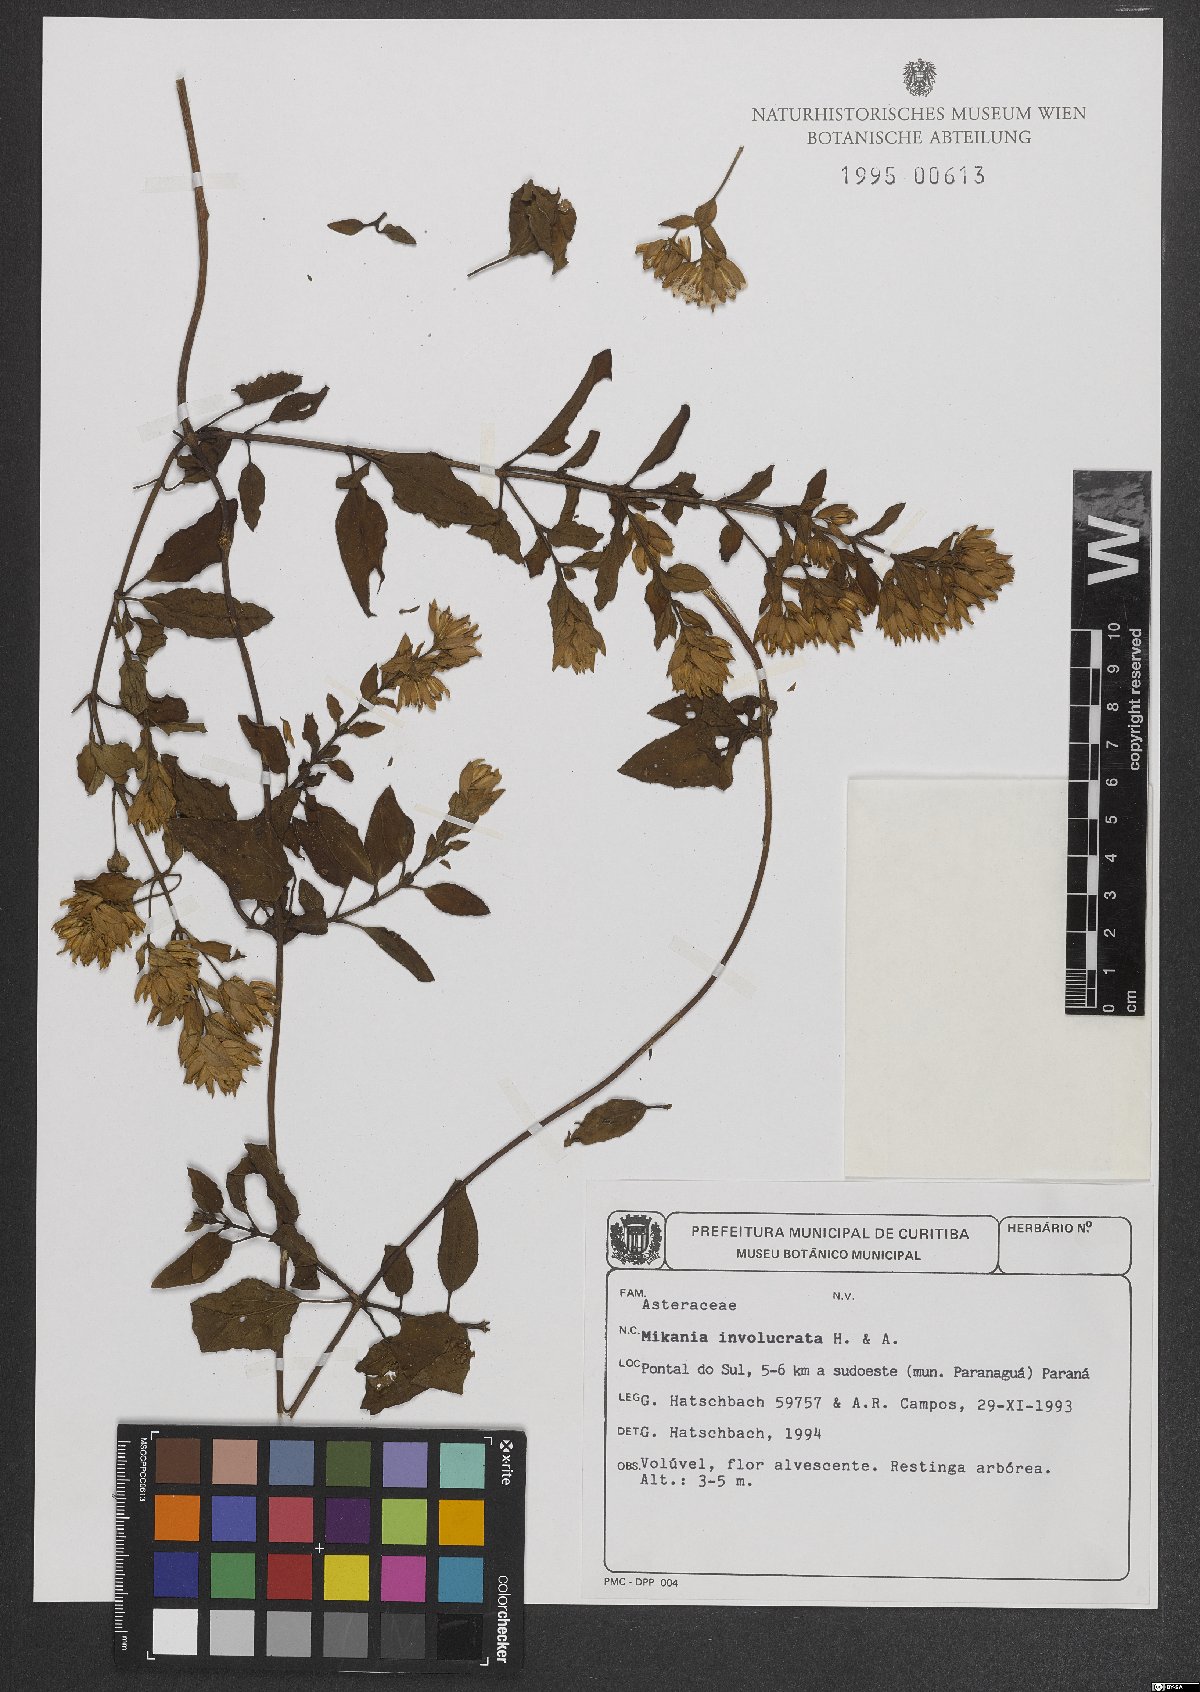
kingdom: Plantae
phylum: Tracheophyta
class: Magnoliopsida
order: Asterales
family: Asteraceae
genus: Mikania
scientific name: Mikania involucrata
